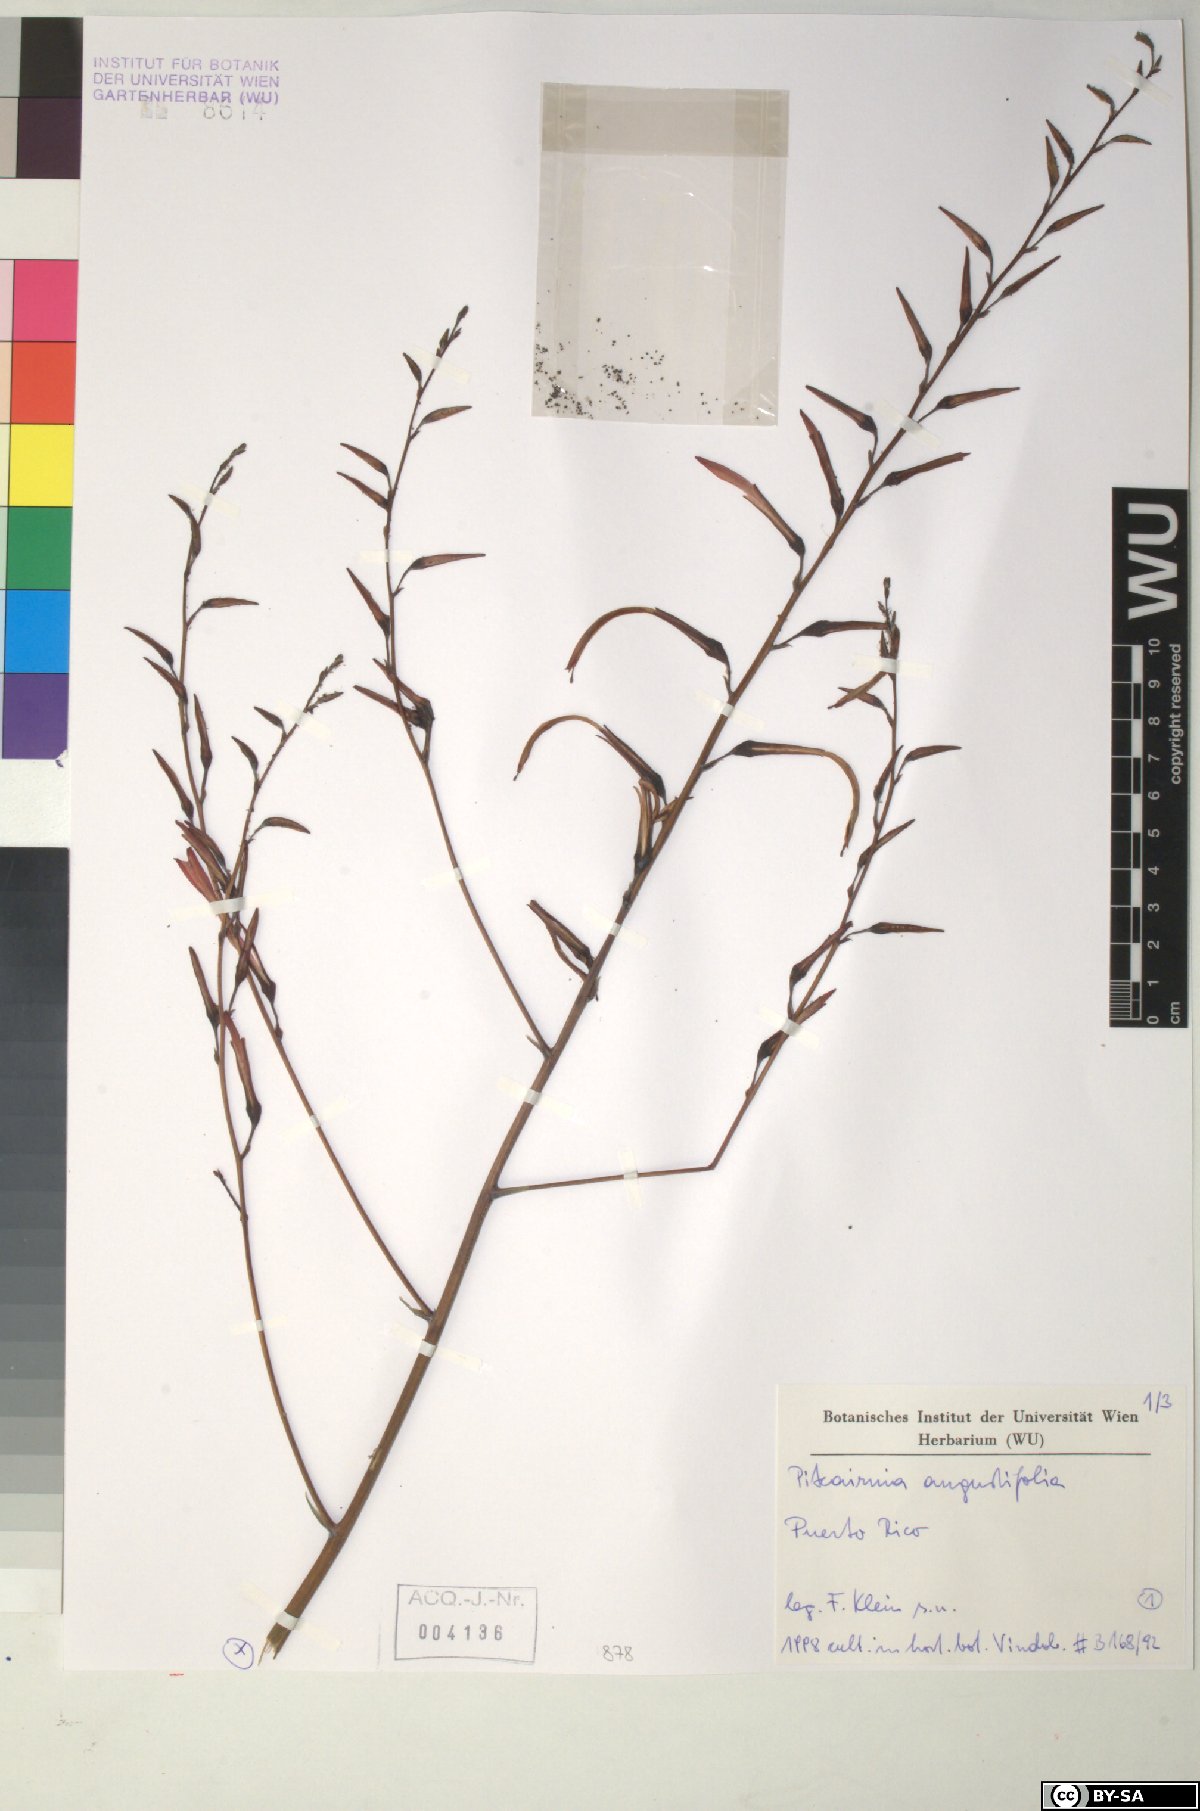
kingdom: Plantae
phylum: Tracheophyta
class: Liliopsida
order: Poales
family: Bromeliaceae
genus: Pitcairnia
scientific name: Pitcairnia angustifolia
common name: Clapper
